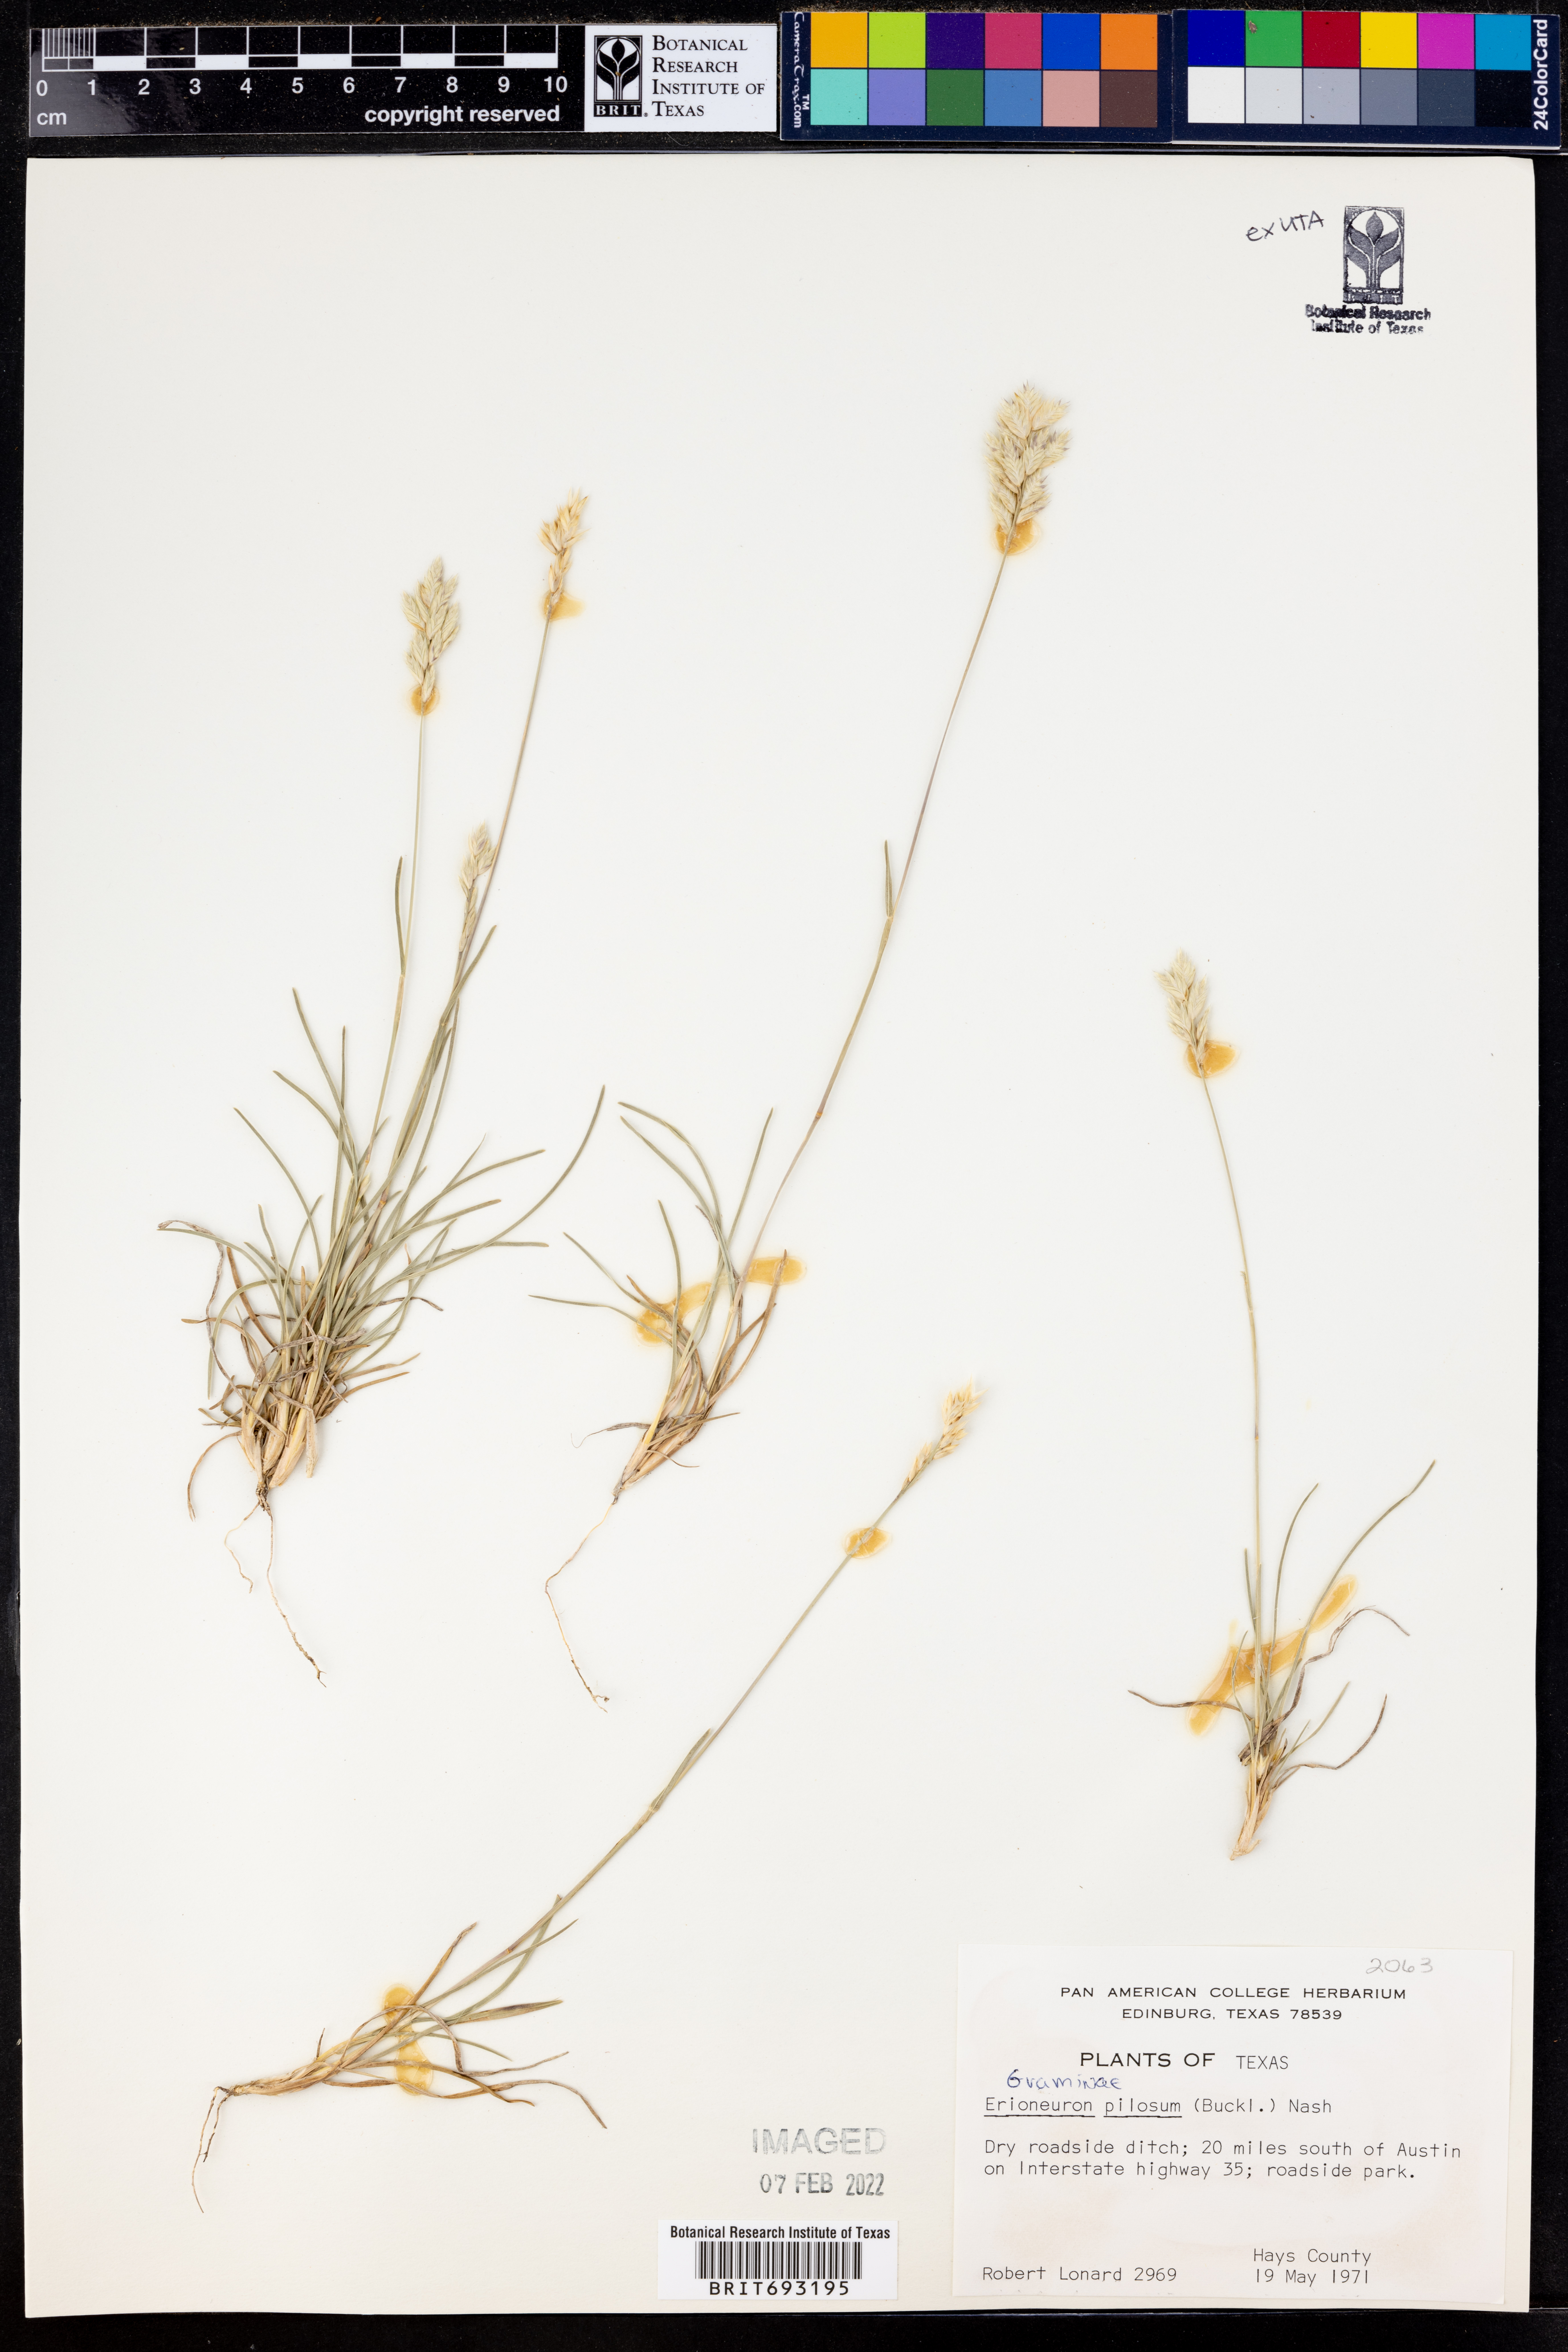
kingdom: Plantae
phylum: Tracheophyta
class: Liliopsida
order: Poales
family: Poaceae
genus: Erioneuron
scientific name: Erioneuron pilosum
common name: Hairy woolly grass
